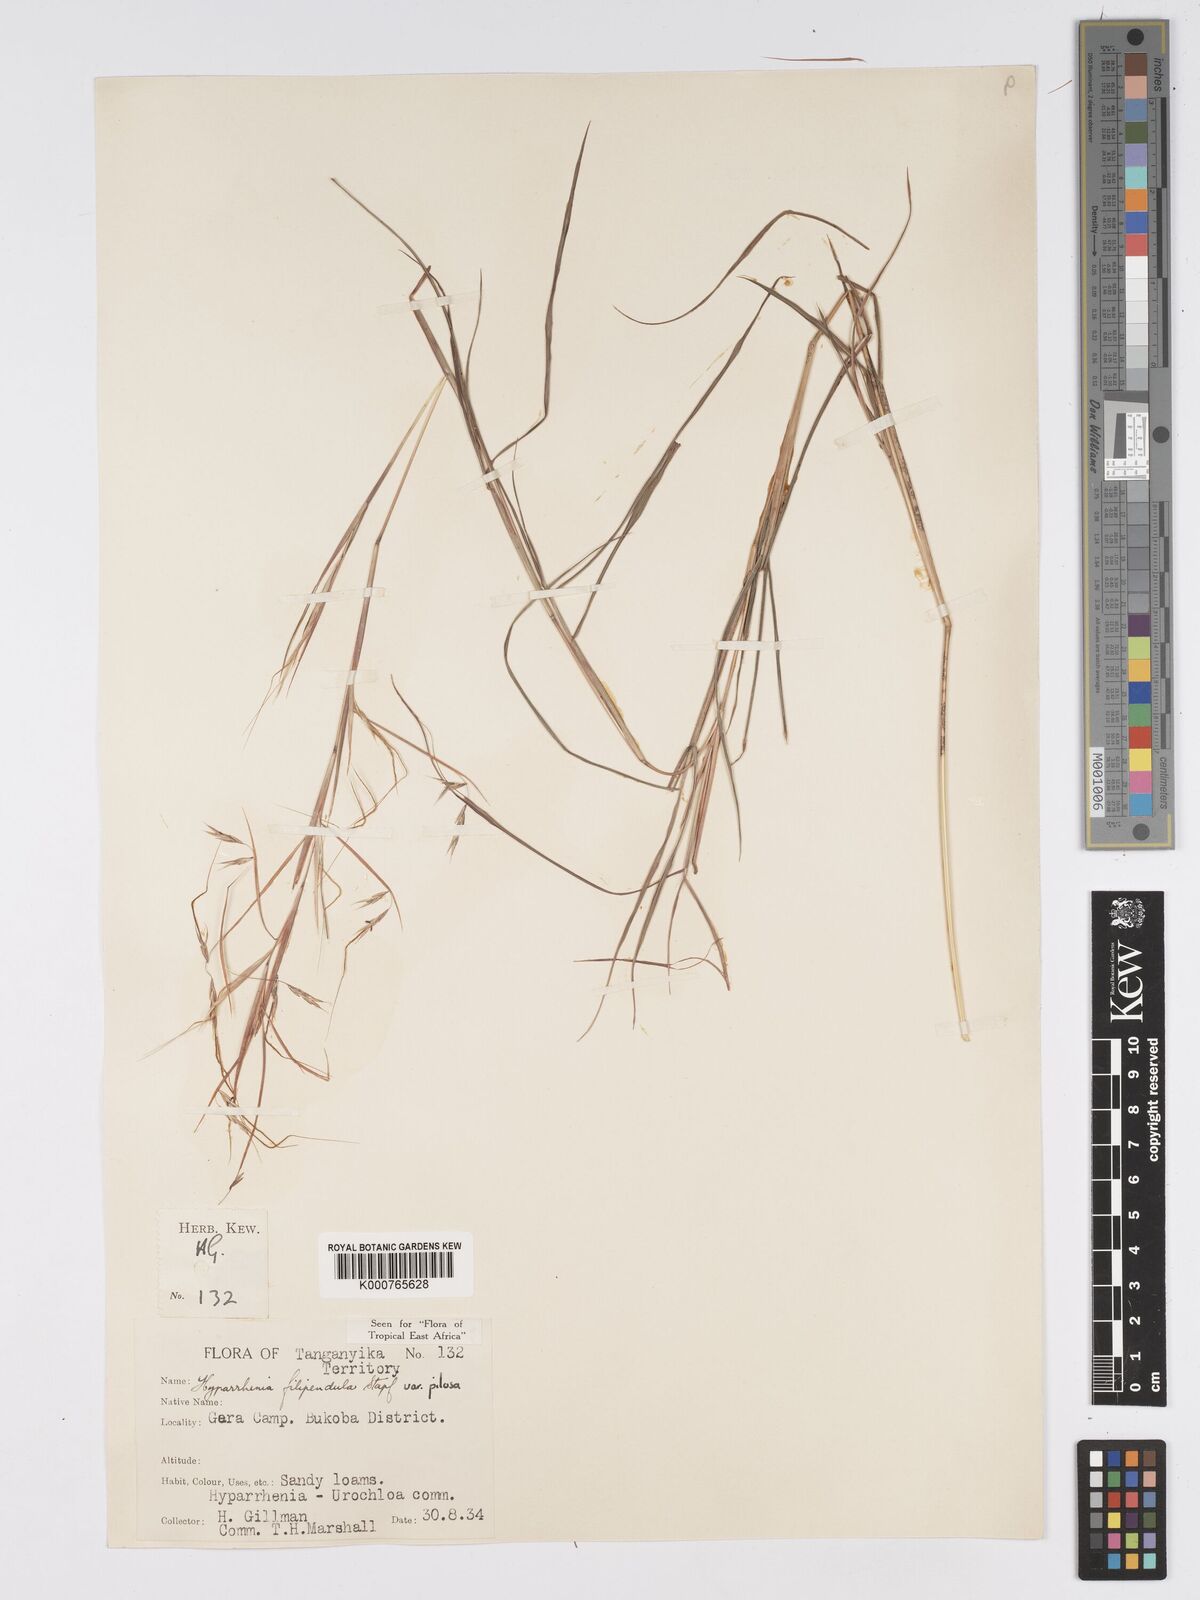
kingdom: Plantae
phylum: Tracheophyta
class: Liliopsida
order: Poales
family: Poaceae
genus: Hyparrhenia
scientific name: Hyparrhenia filipendula
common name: Tambookie grass
